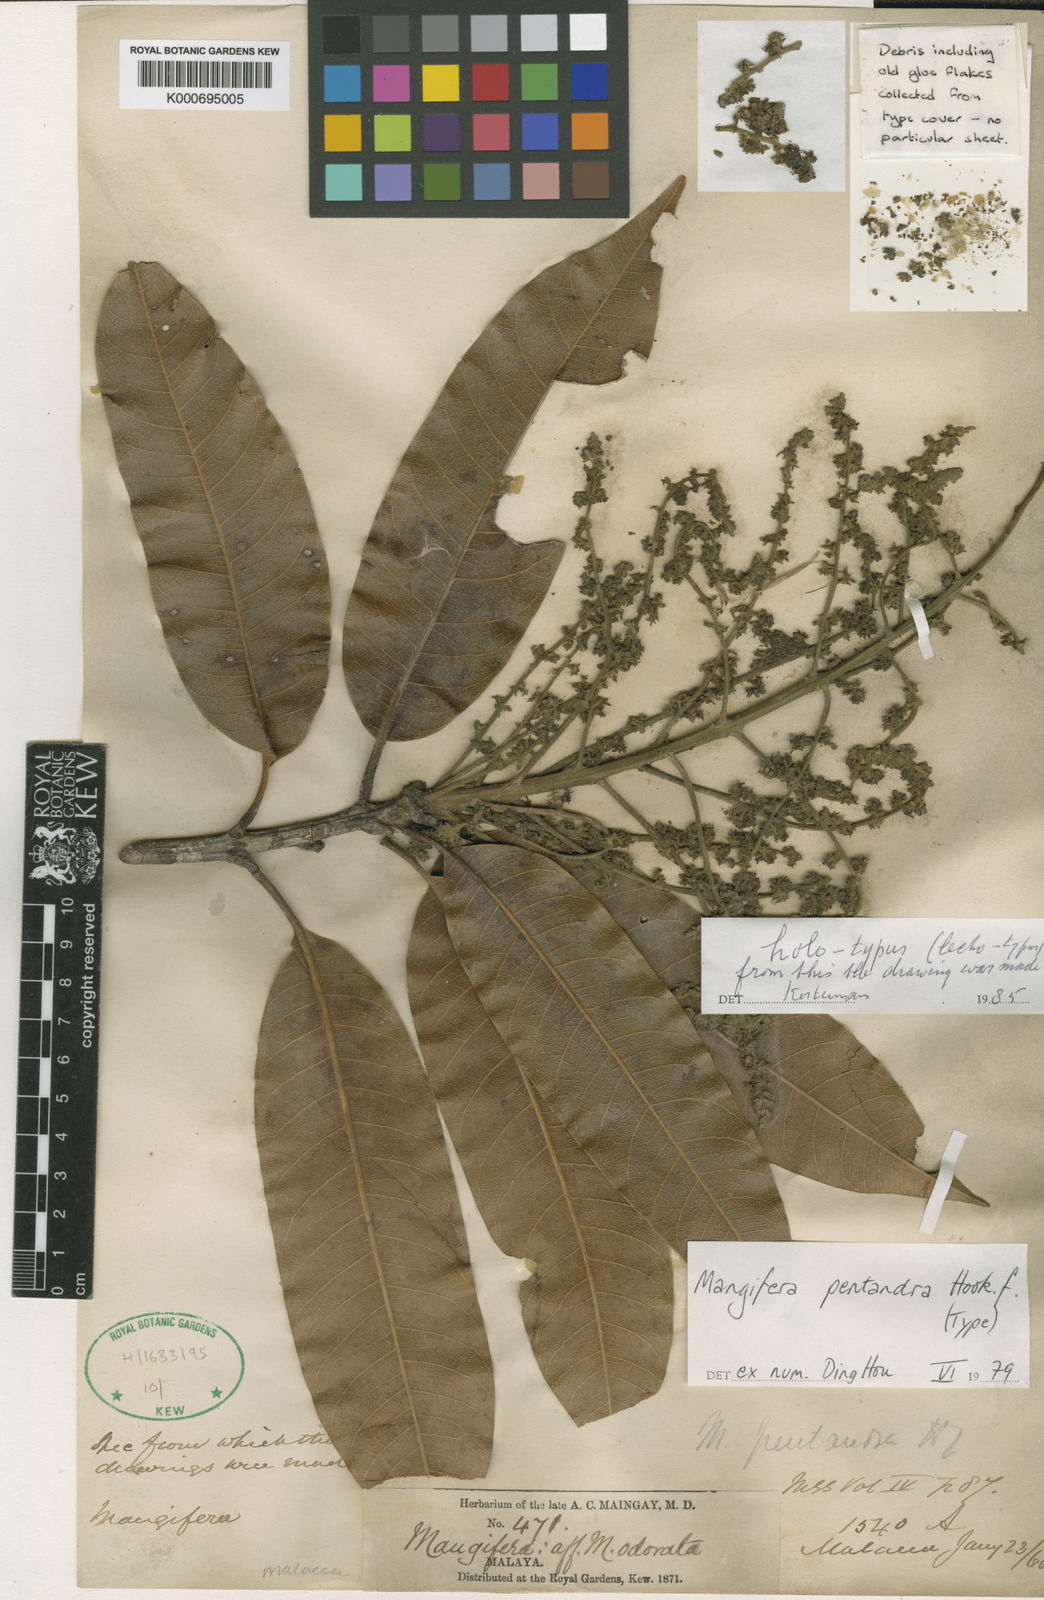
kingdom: Plantae
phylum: Tracheophyta
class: Magnoliopsida
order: Sapindales
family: Anacardiaceae
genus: Mangifera
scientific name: Mangifera pentandra
